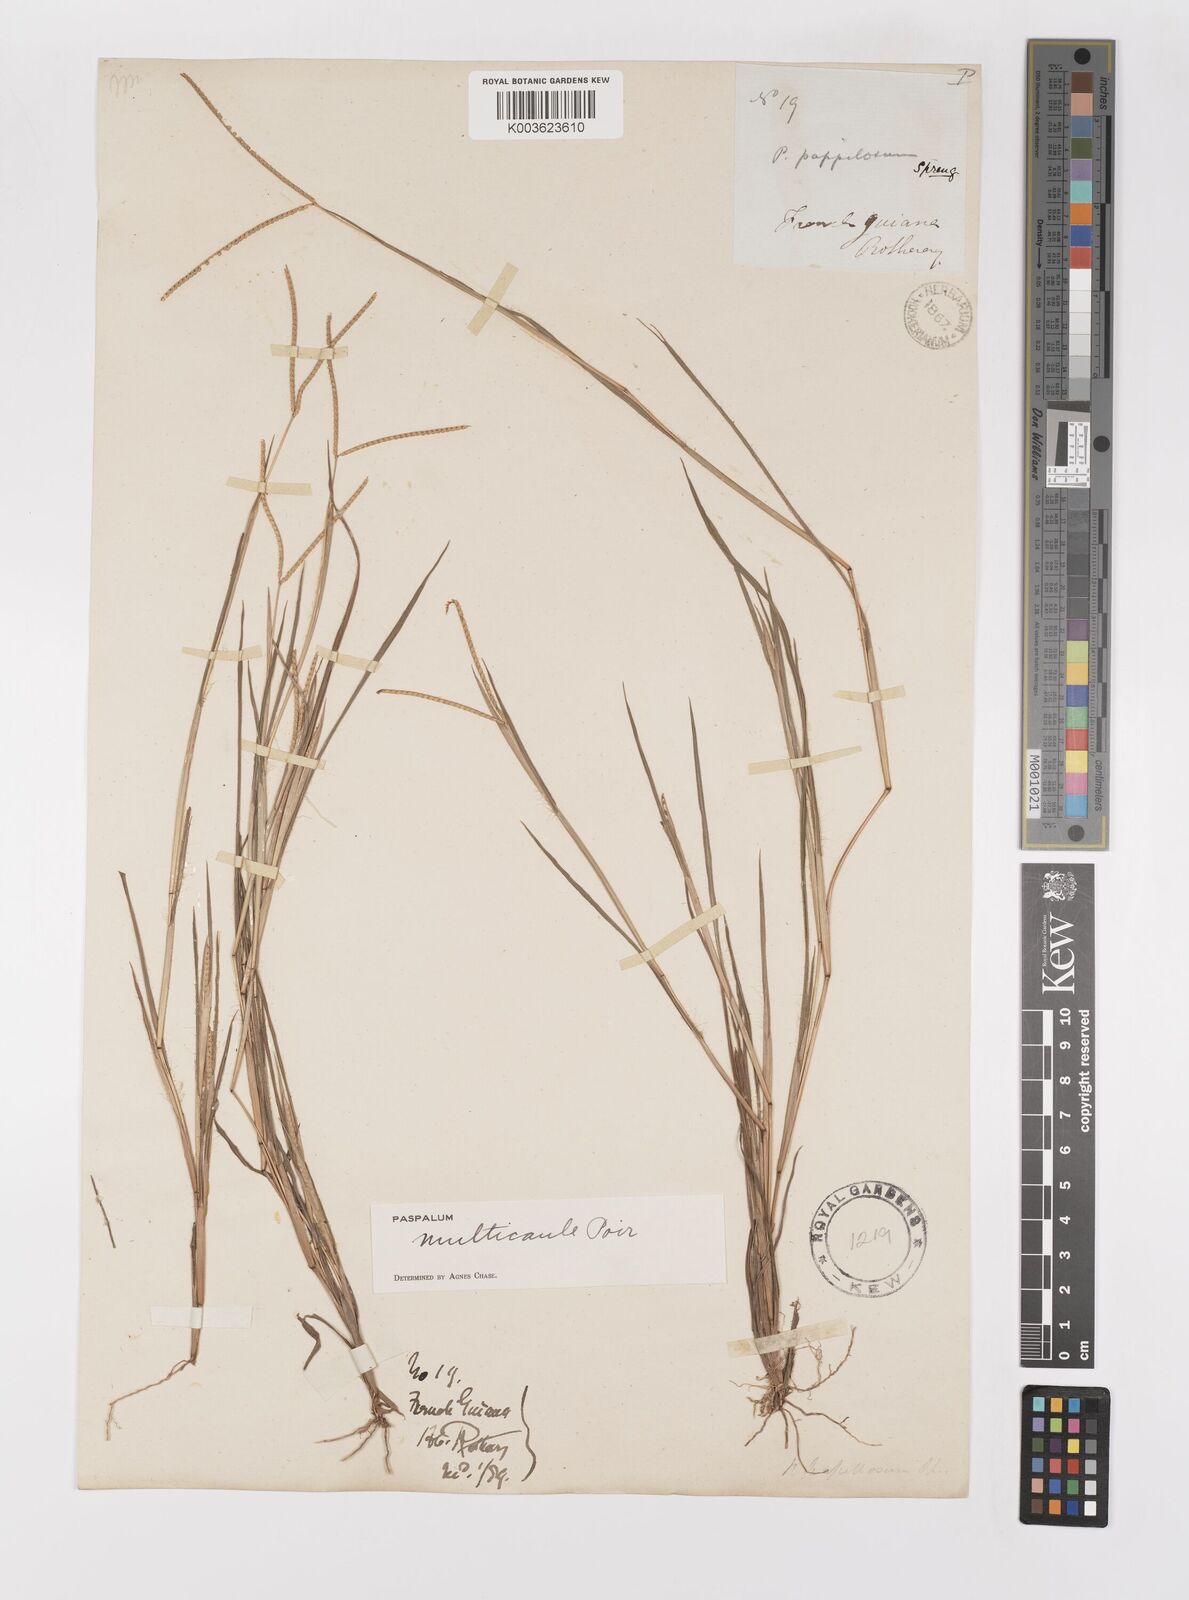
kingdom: Plantae
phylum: Tracheophyta
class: Liliopsida
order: Poales
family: Poaceae
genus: Paspalum
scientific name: Paspalum multicaule
